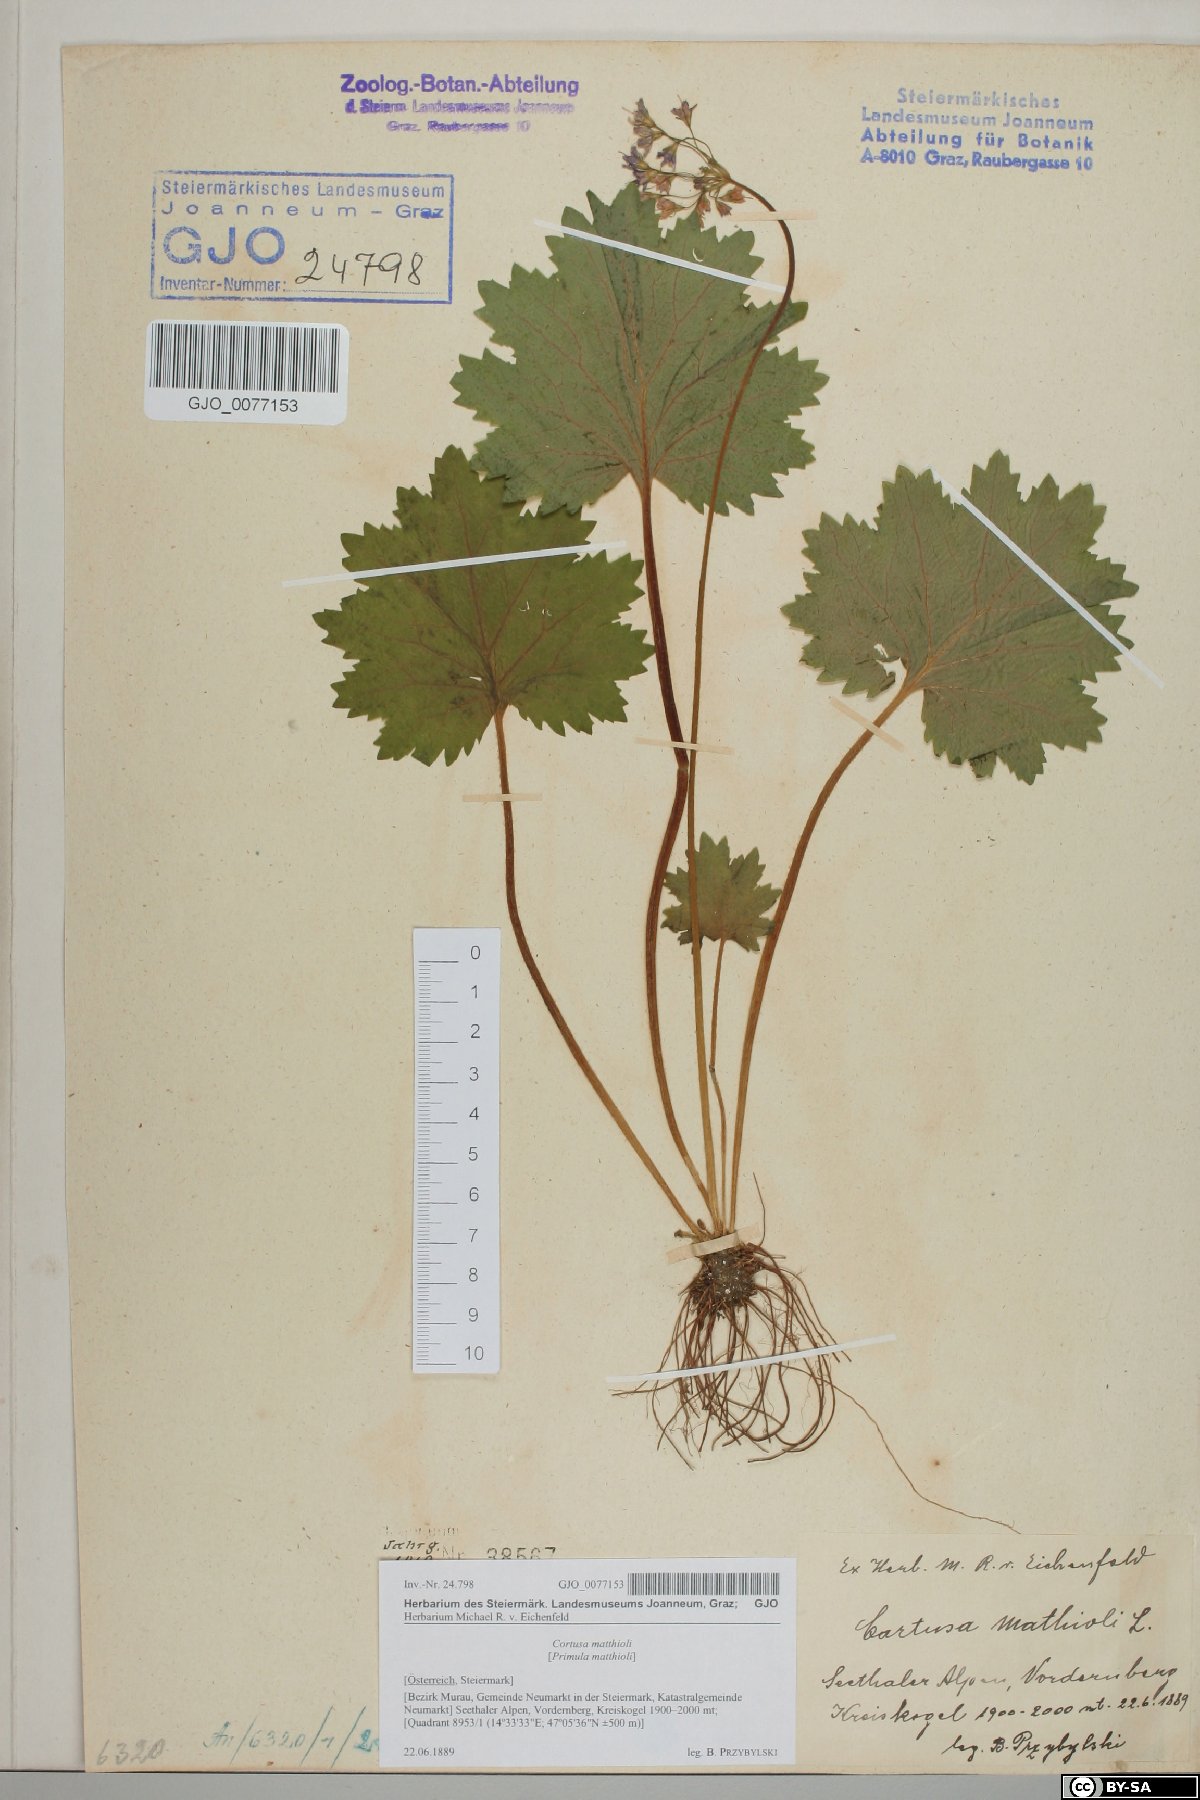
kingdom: Plantae
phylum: Tracheophyta
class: Magnoliopsida
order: Ericales
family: Primulaceae
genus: Primula
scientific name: Primula matthioli
